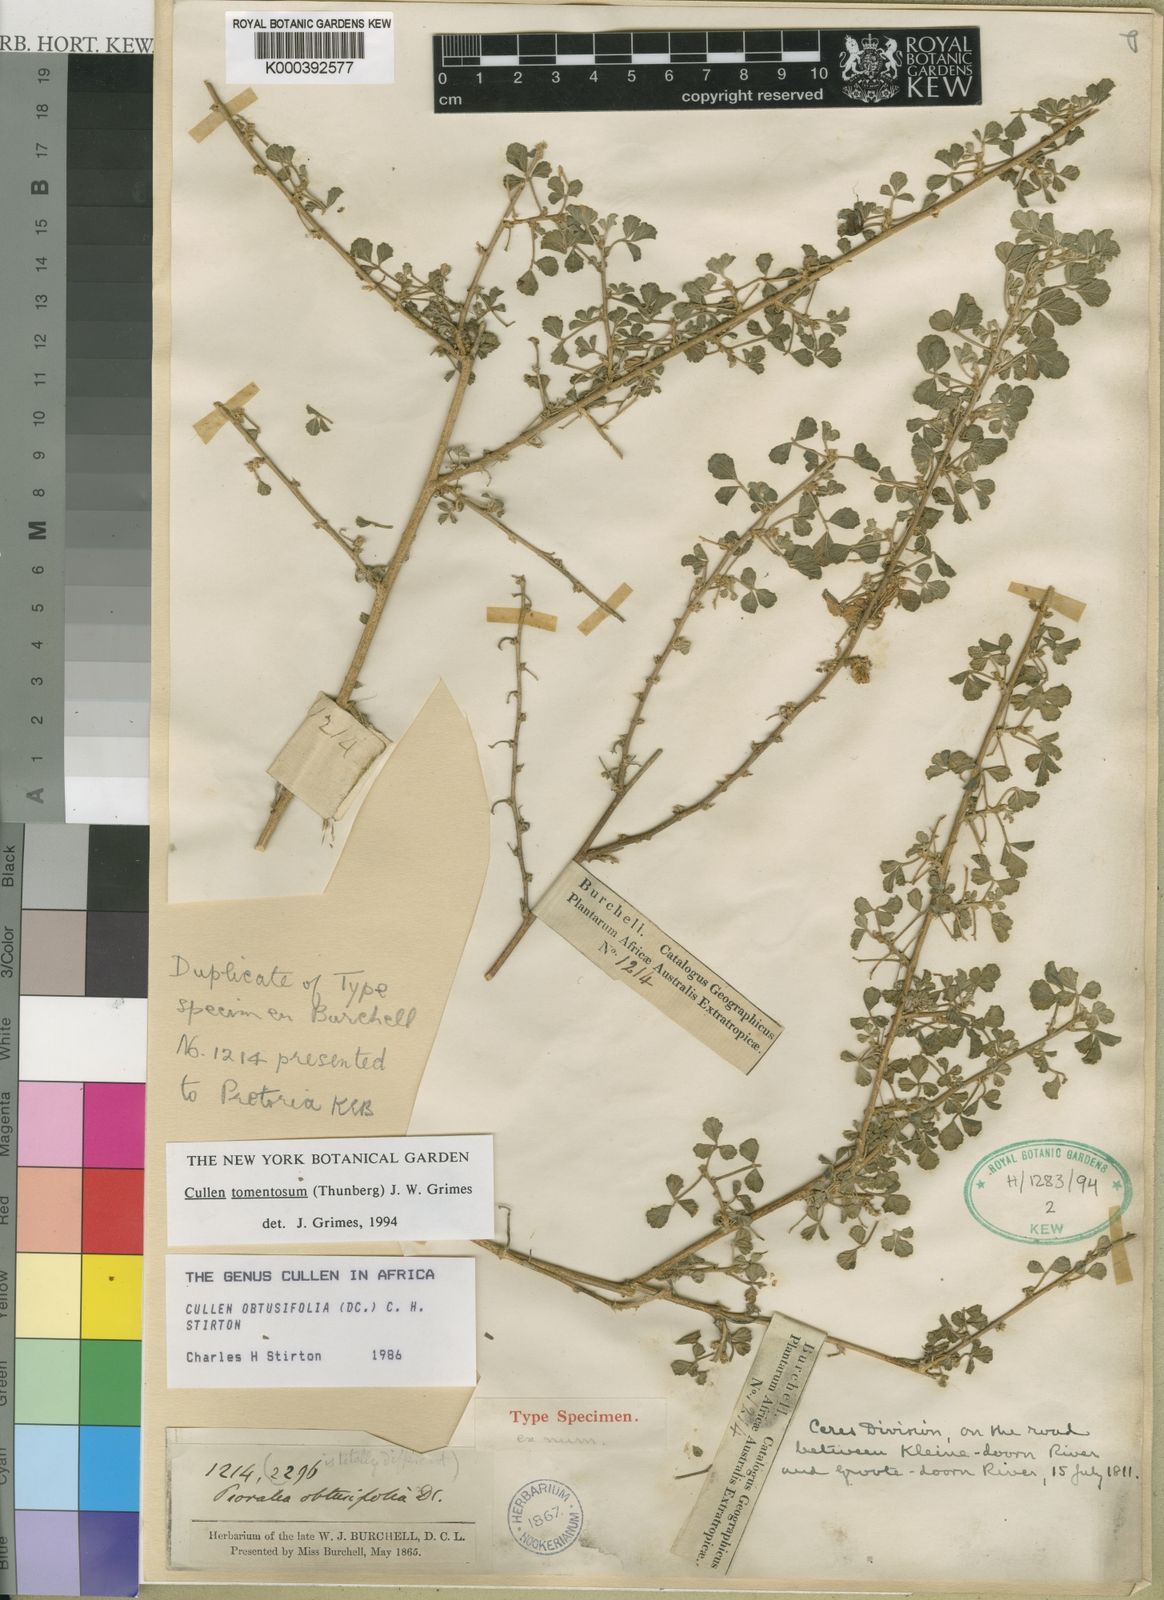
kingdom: Plantae
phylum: Tracheophyta
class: Magnoliopsida
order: Fabales
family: Fabaceae
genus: Cullen
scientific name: Cullen tomentosum
